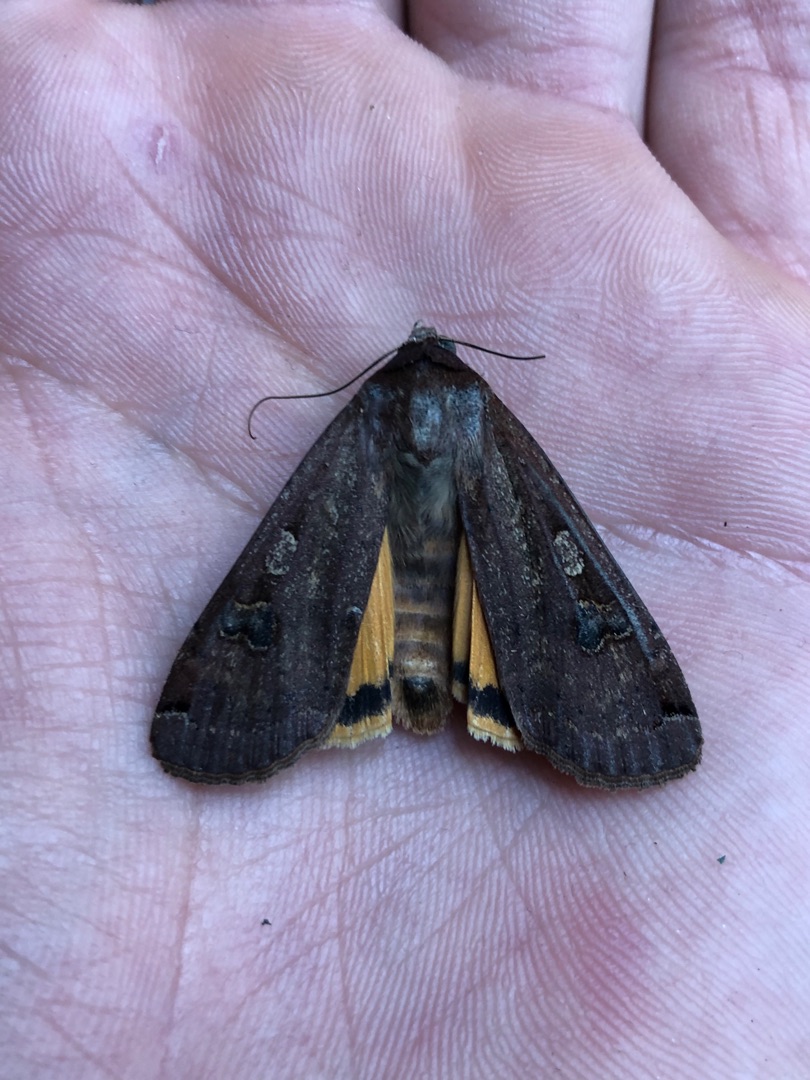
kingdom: Animalia
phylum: Arthropoda
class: Insecta
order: Lepidoptera
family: Noctuidae
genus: Noctua
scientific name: Noctua pronuba
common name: Stor smutugle
